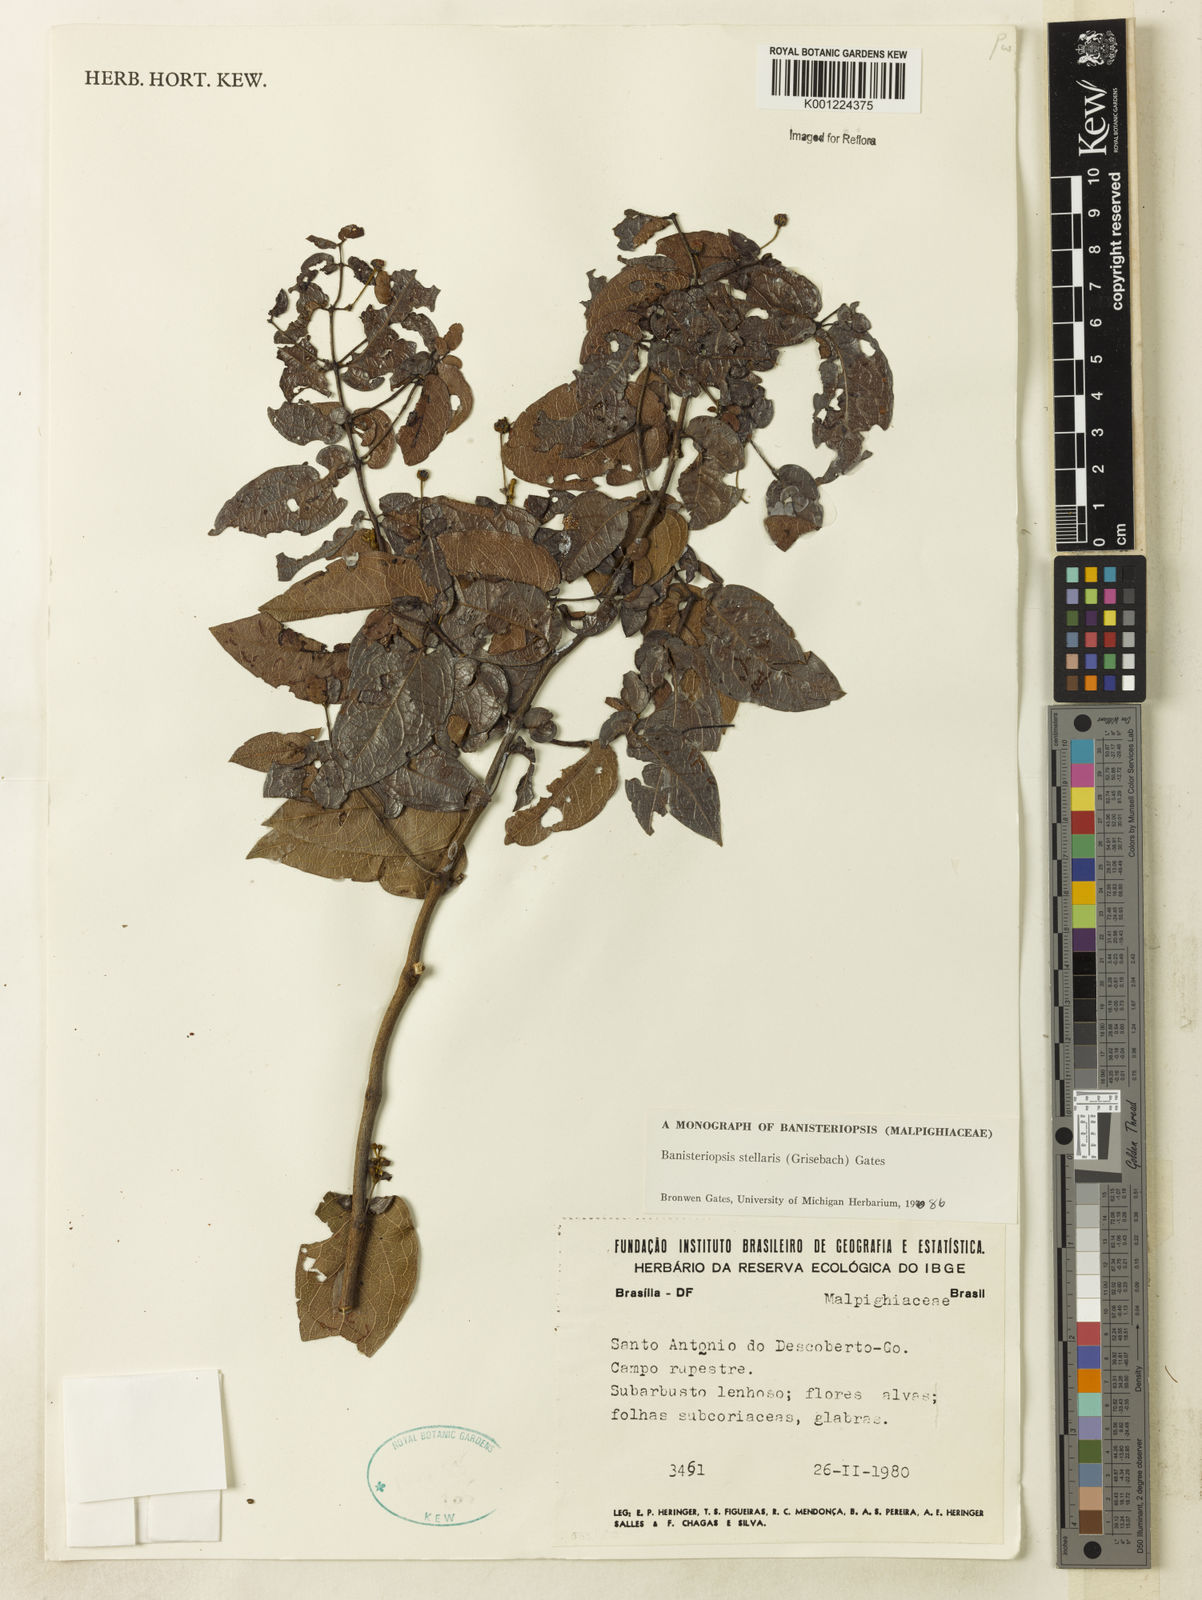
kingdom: Plantae
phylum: Tracheophyta
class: Magnoliopsida
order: Malpighiales
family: Malpighiaceae
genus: Banisteriopsis
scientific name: Banisteriopsis stellaris
